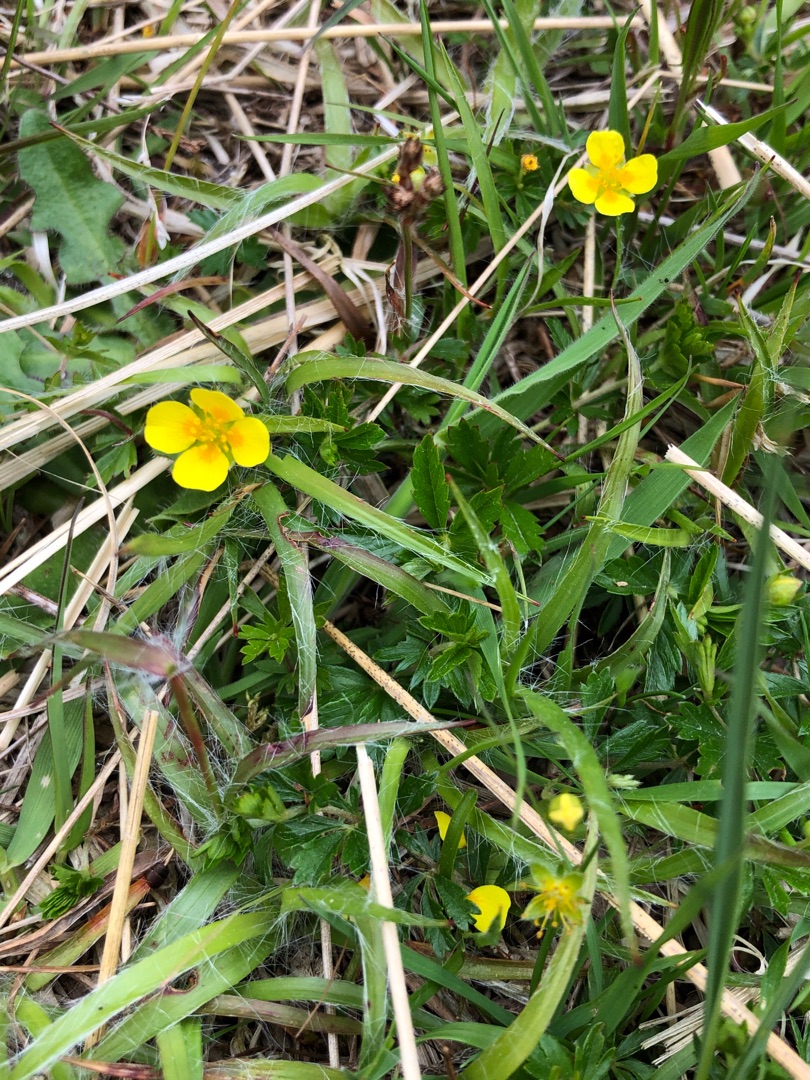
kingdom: Plantae
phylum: Tracheophyta
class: Magnoliopsida
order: Rosales
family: Rosaceae
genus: Potentilla
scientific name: Potentilla erecta
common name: Tormentil
